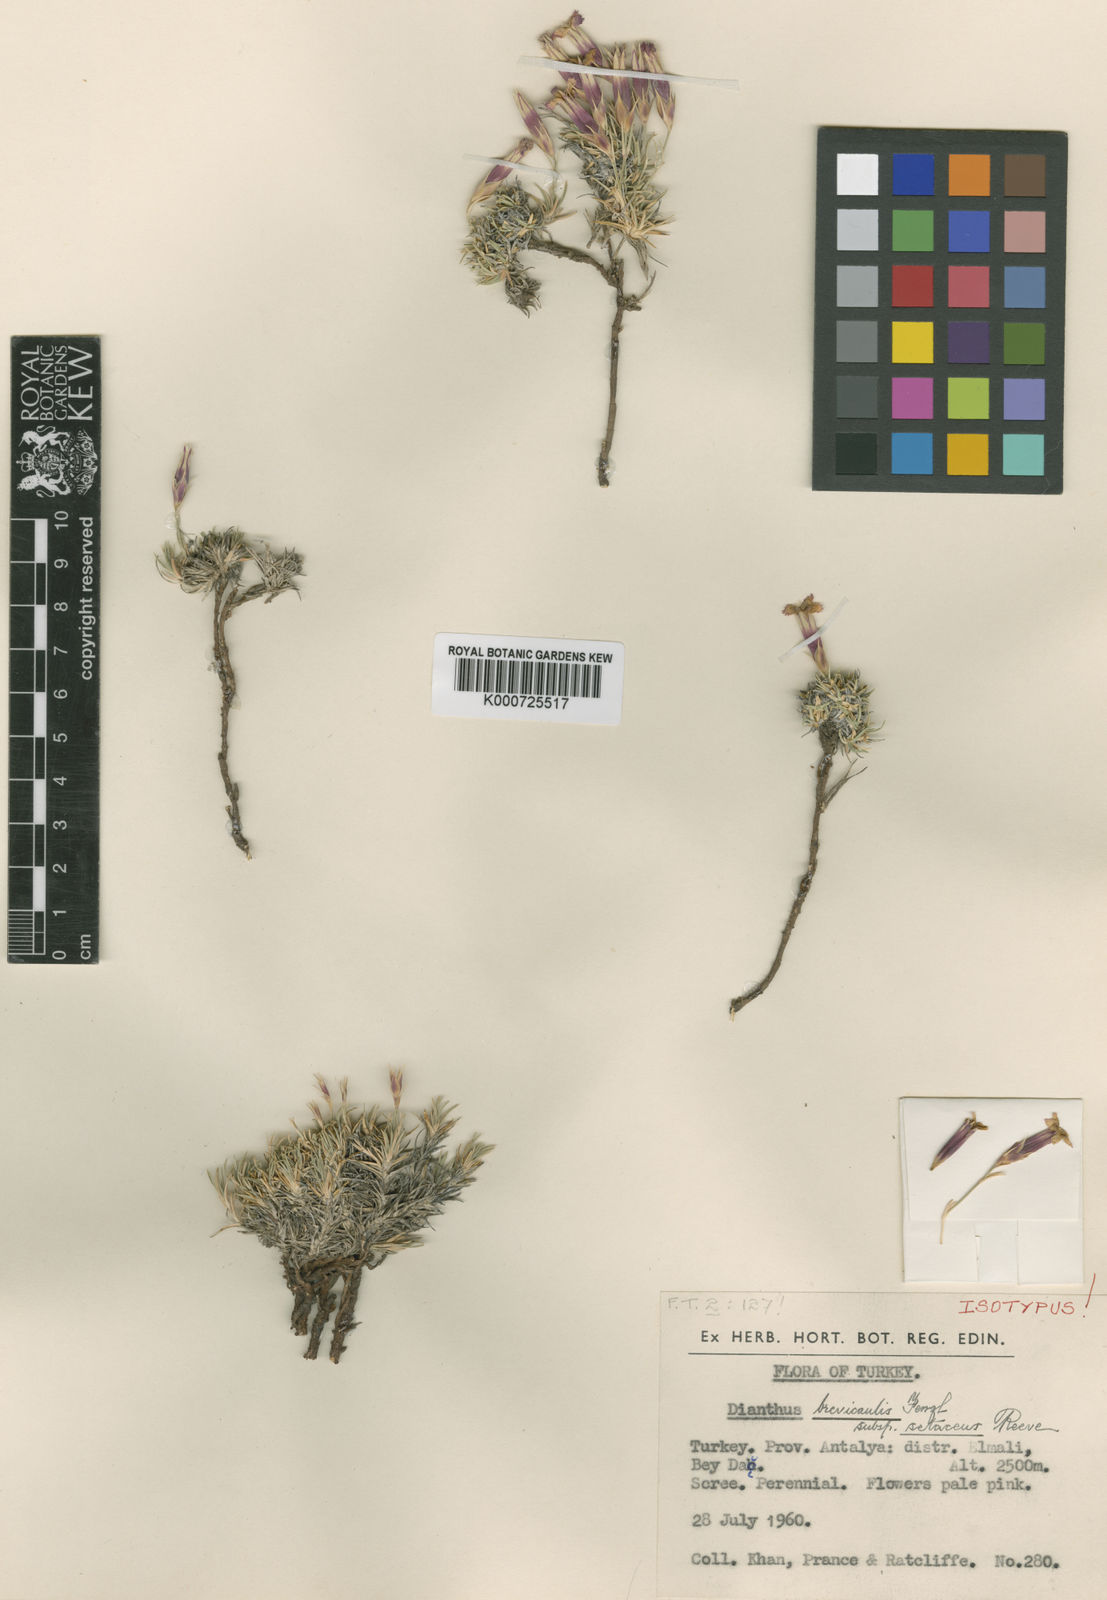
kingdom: Plantae
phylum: Tracheophyta
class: Magnoliopsida
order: Caryophyllales
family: Caryophyllaceae
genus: Dianthus
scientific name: Dianthus brevicaulis
